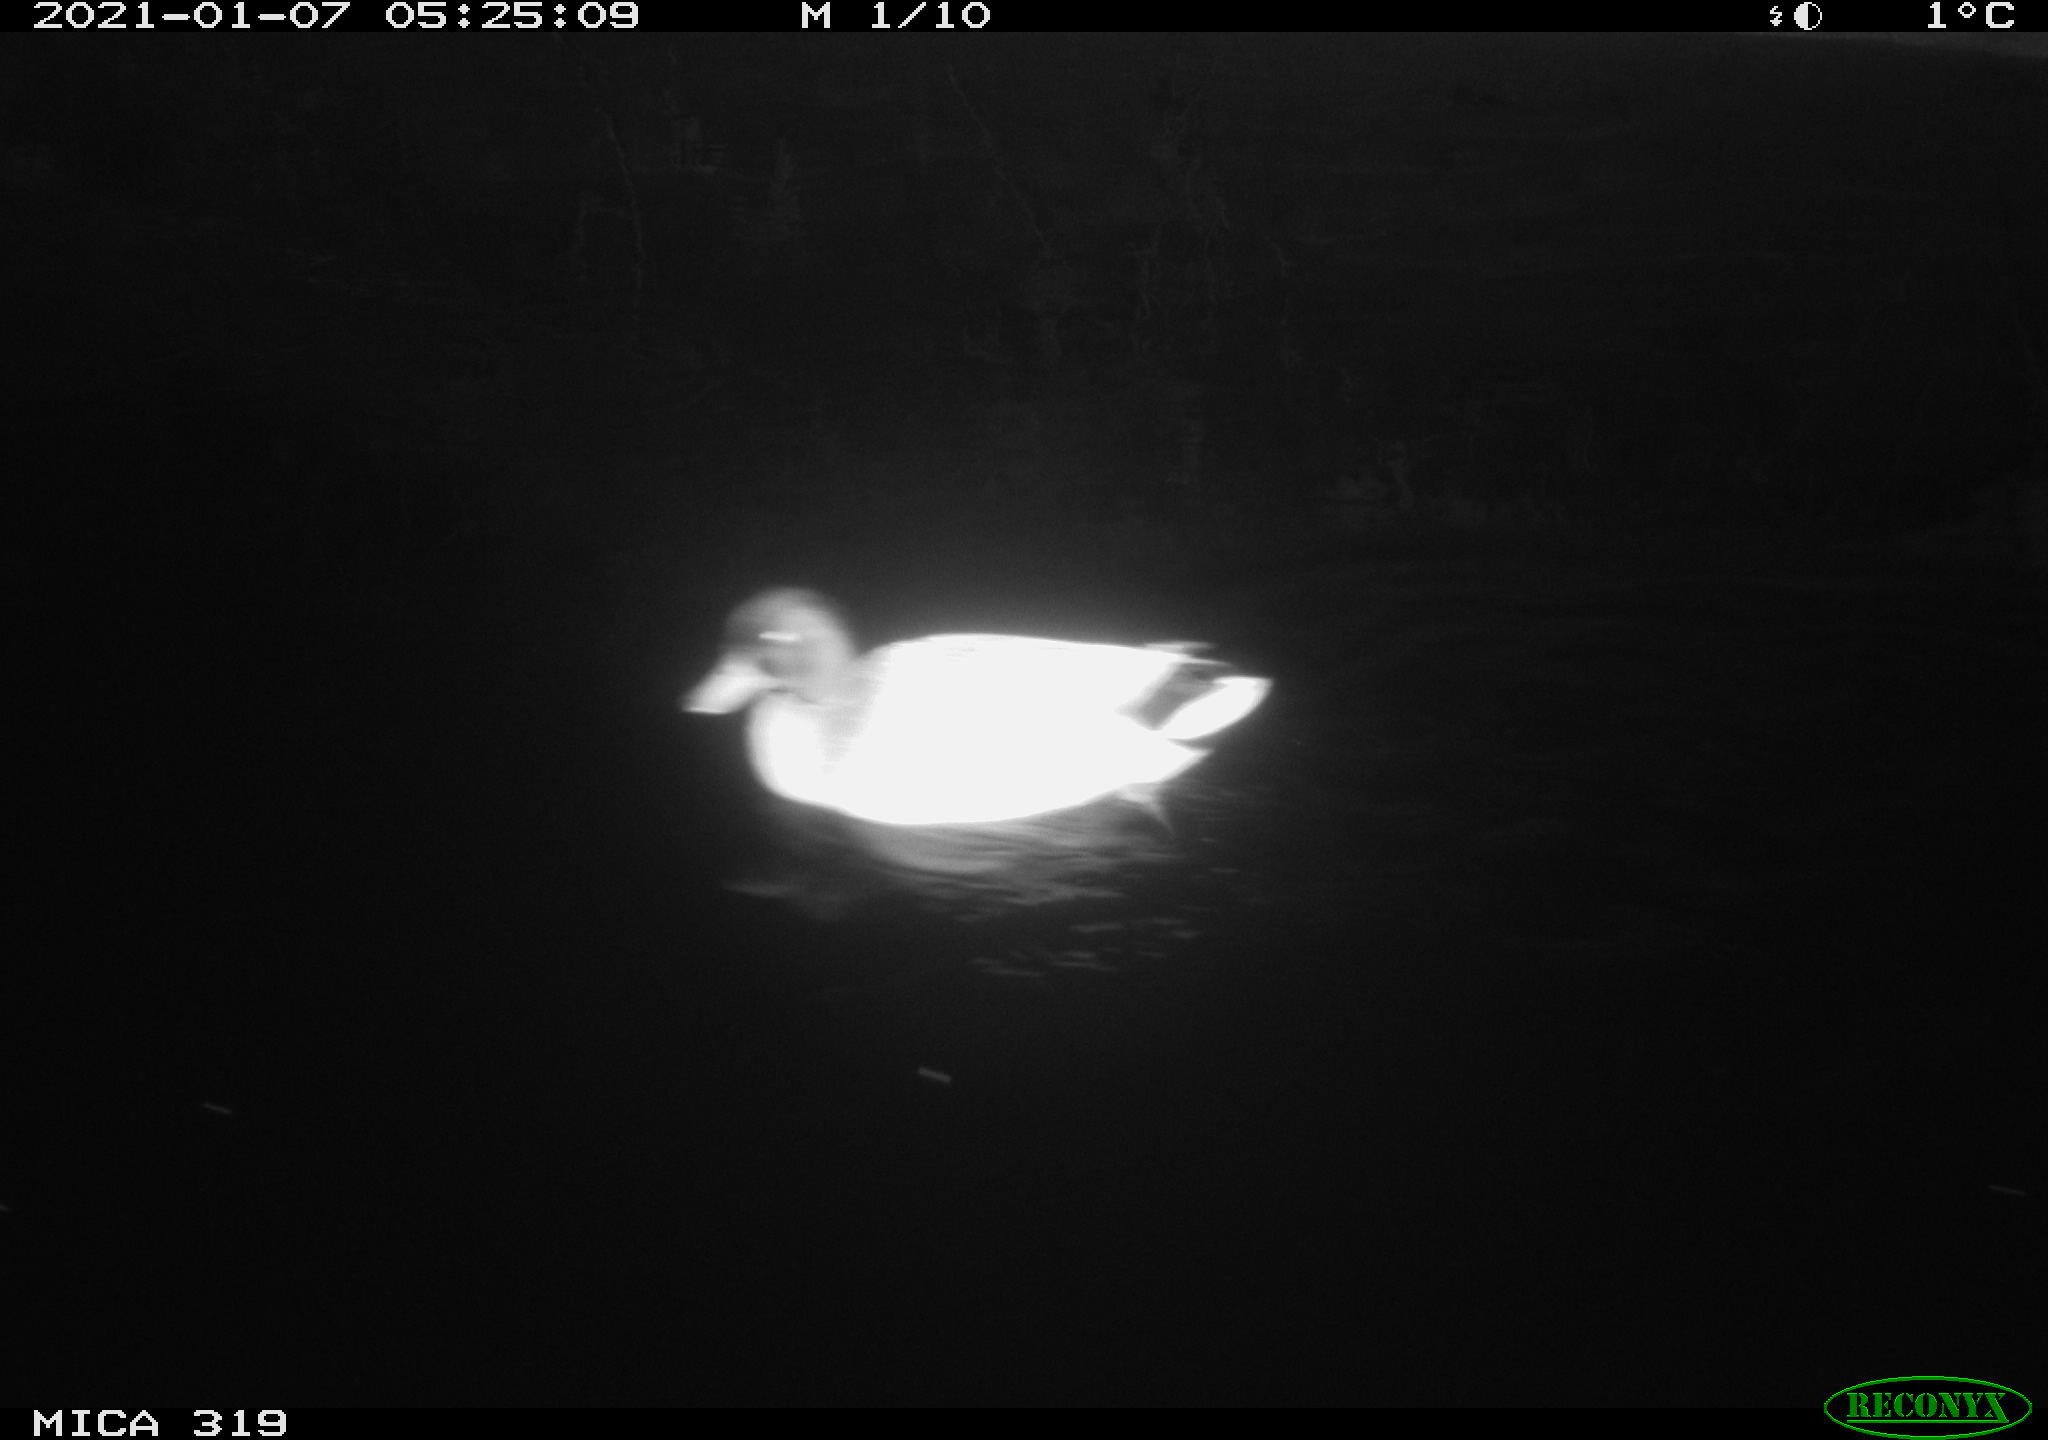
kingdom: Animalia
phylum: Chordata
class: Aves
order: Anseriformes
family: Anatidae
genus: Anas
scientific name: Anas platyrhynchos
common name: Mallard
